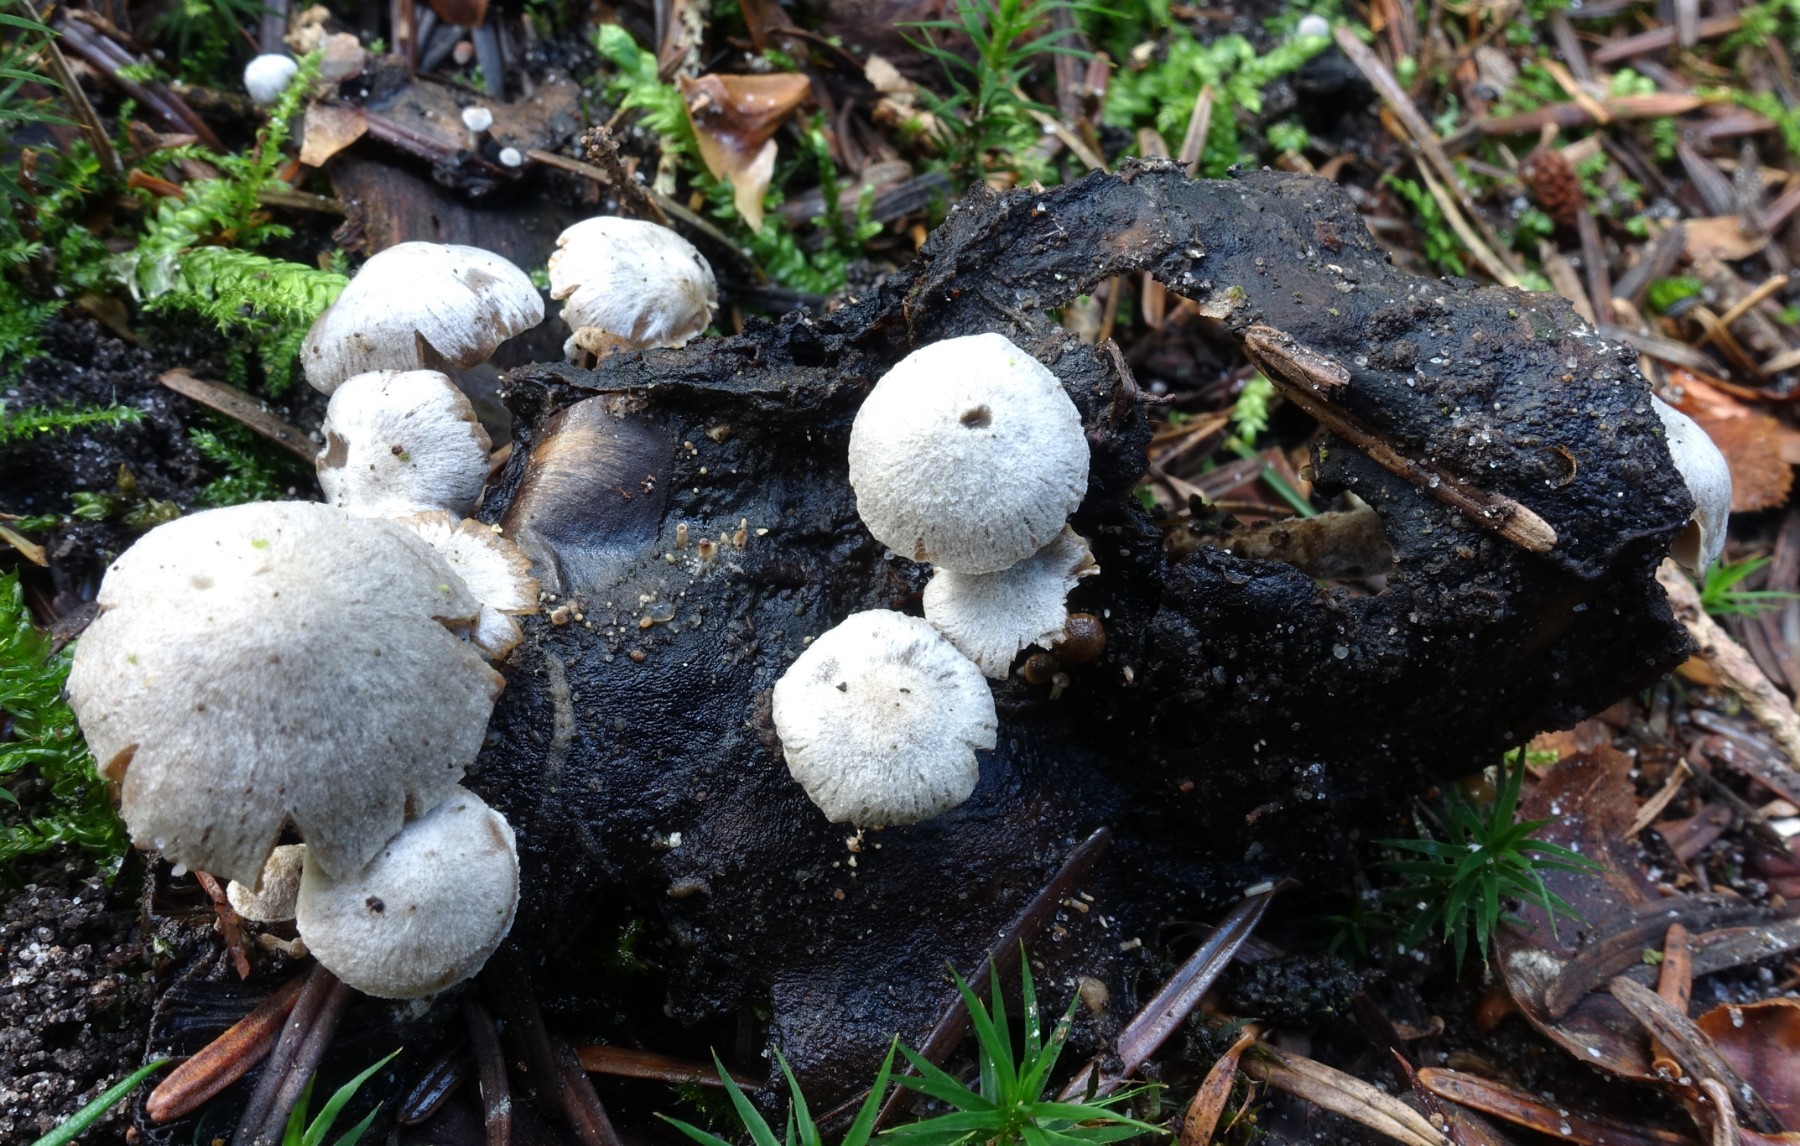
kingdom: Fungi
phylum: Basidiomycota
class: Agaricomycetes
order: Agaricales
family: Lyophyllaceae
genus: Asterophora
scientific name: Asterophora parasitica
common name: grå snyltehat
